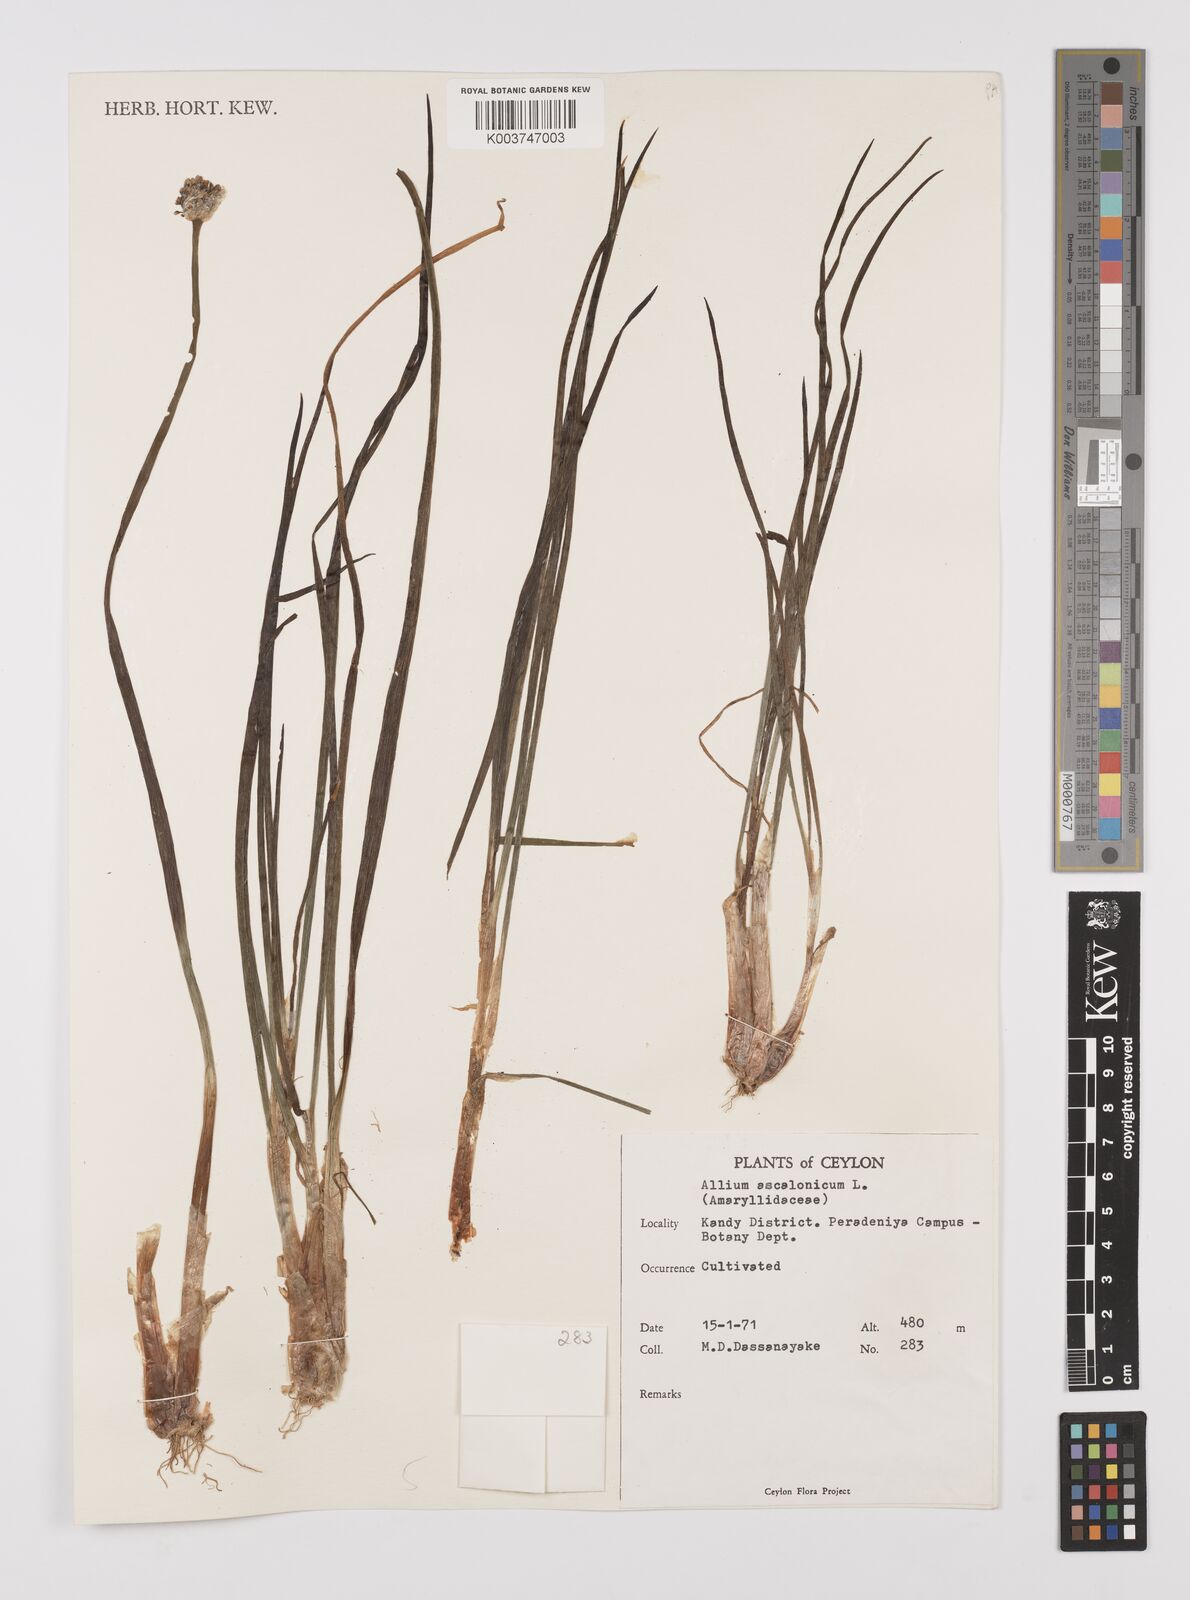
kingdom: Plantae
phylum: Tracheophyta
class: Liliopsida
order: Asparagales
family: Amaryllidaceae
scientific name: Amaryllidaceae
